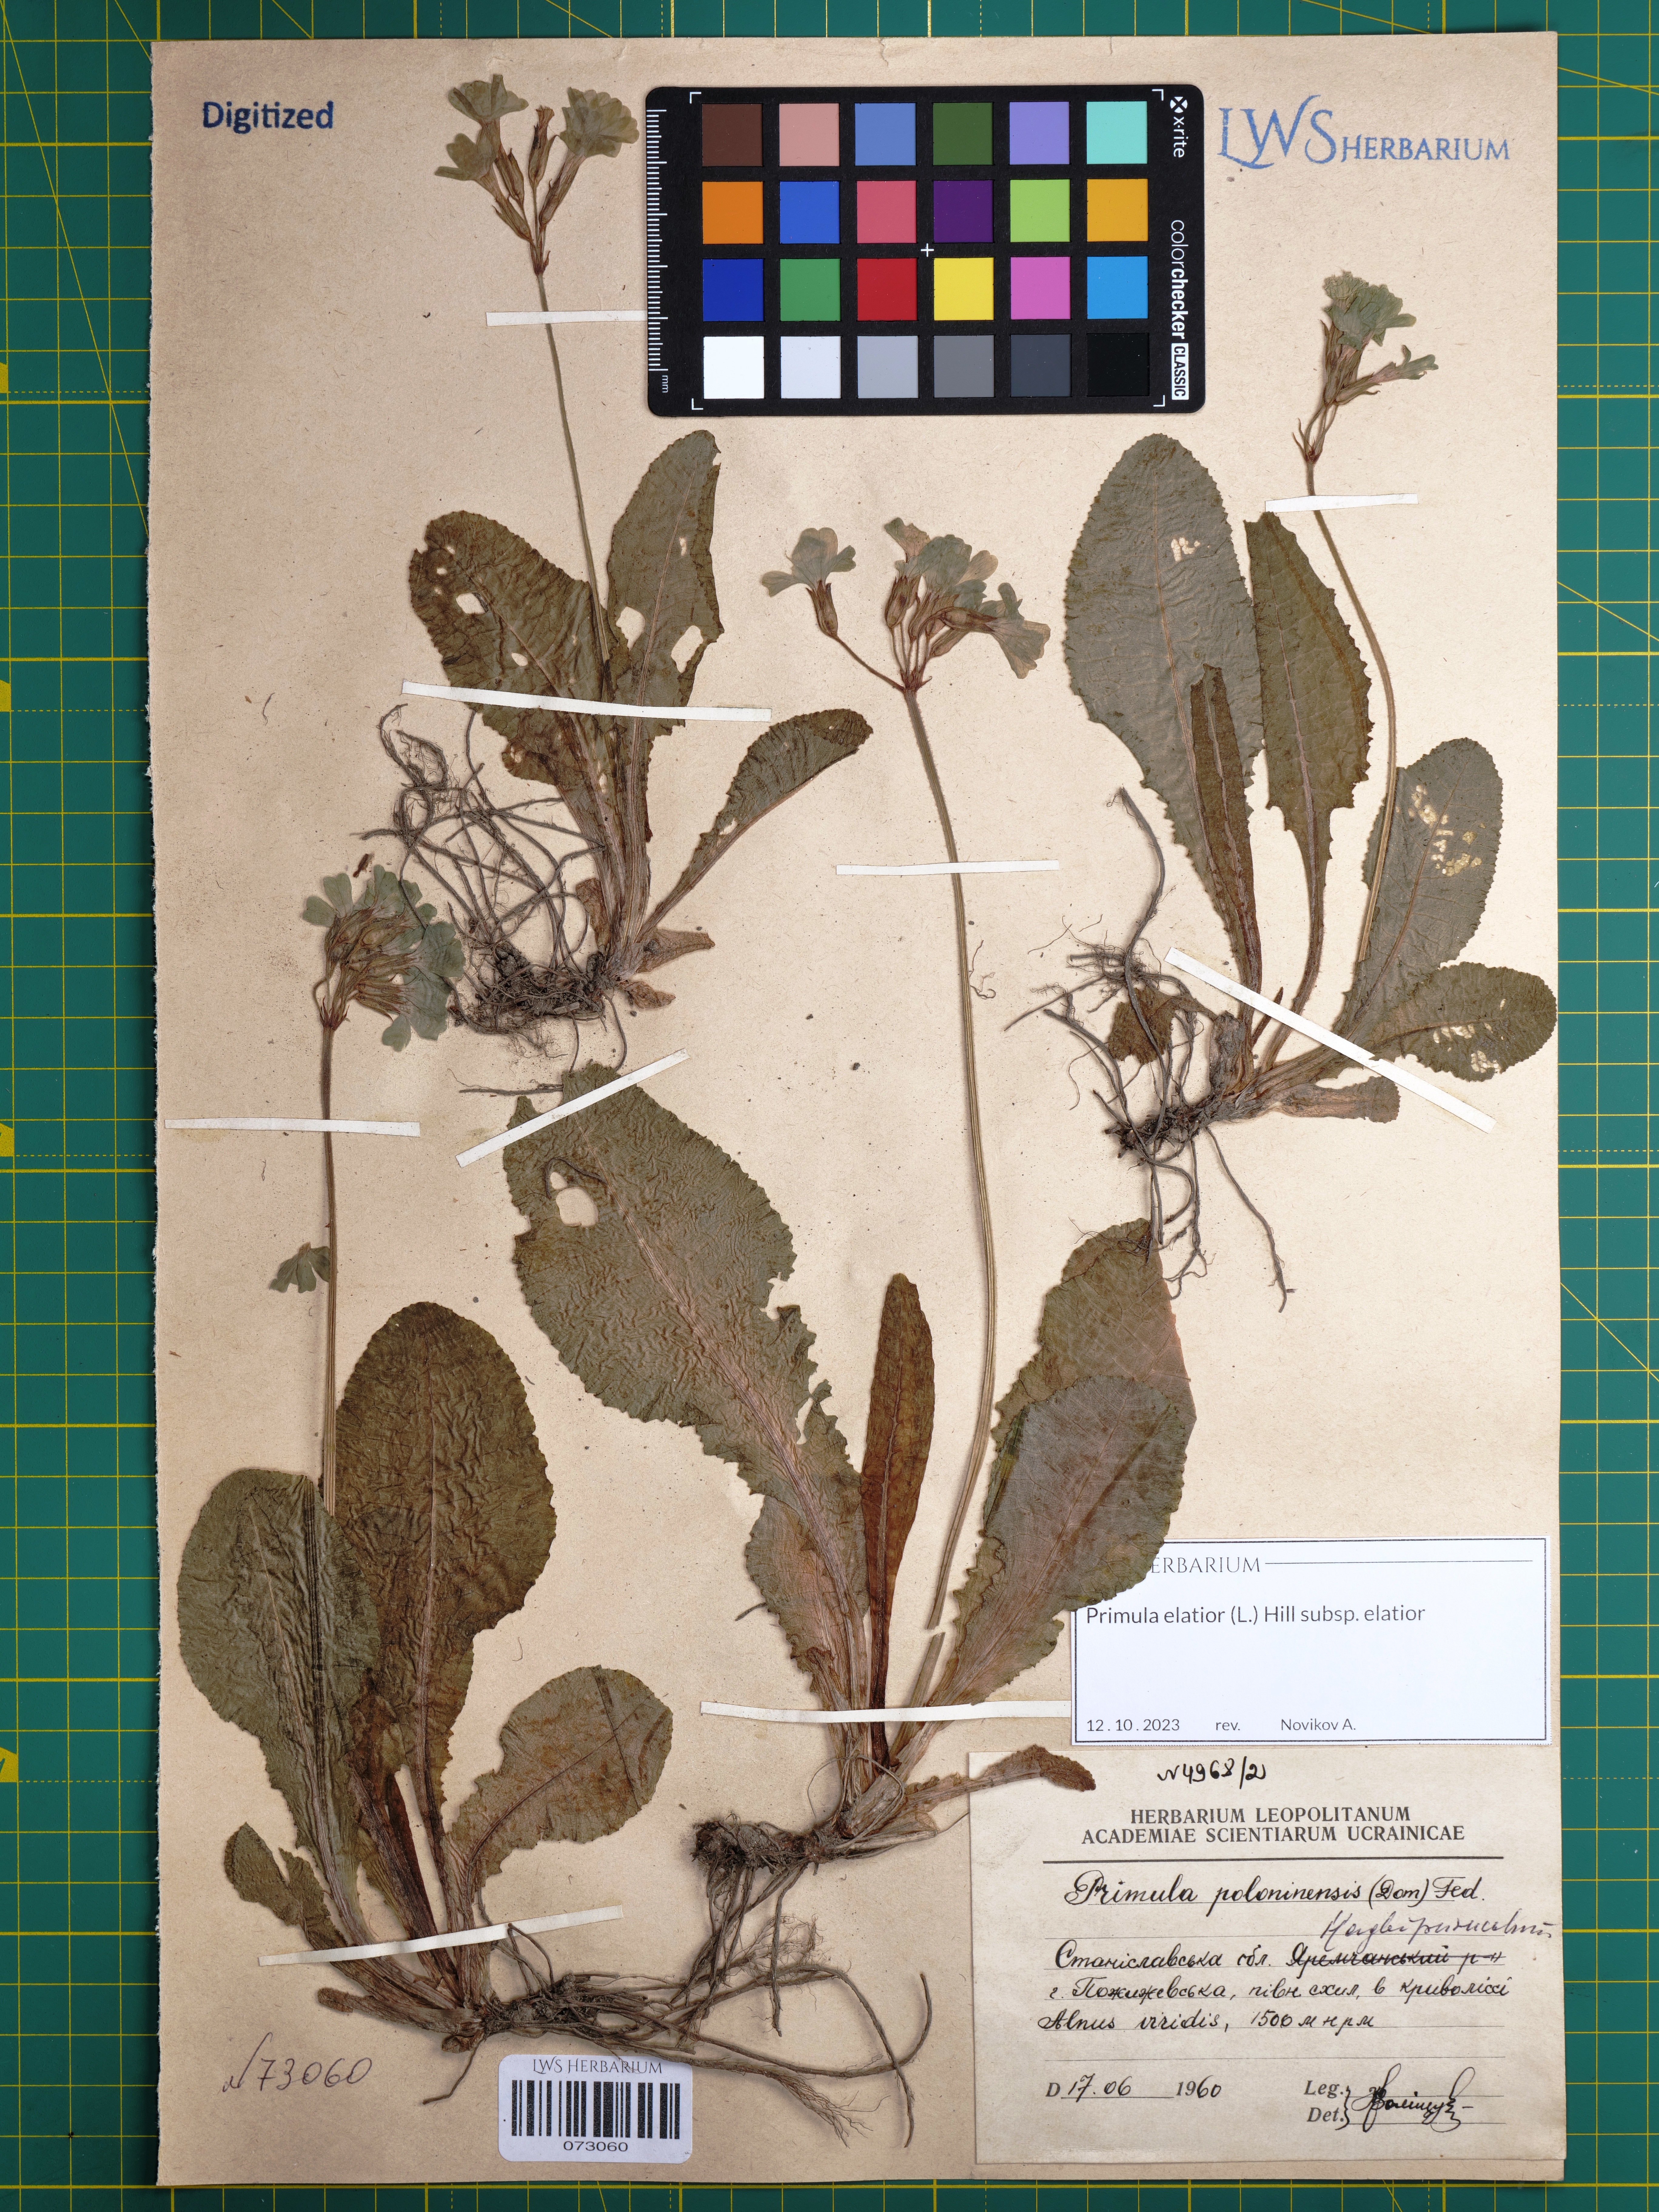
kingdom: Plantae
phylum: Tracheophyta
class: Magnoliopsida
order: Ericales
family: Primulaceae
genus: Primula
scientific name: Primula elatior
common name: Oxlip
